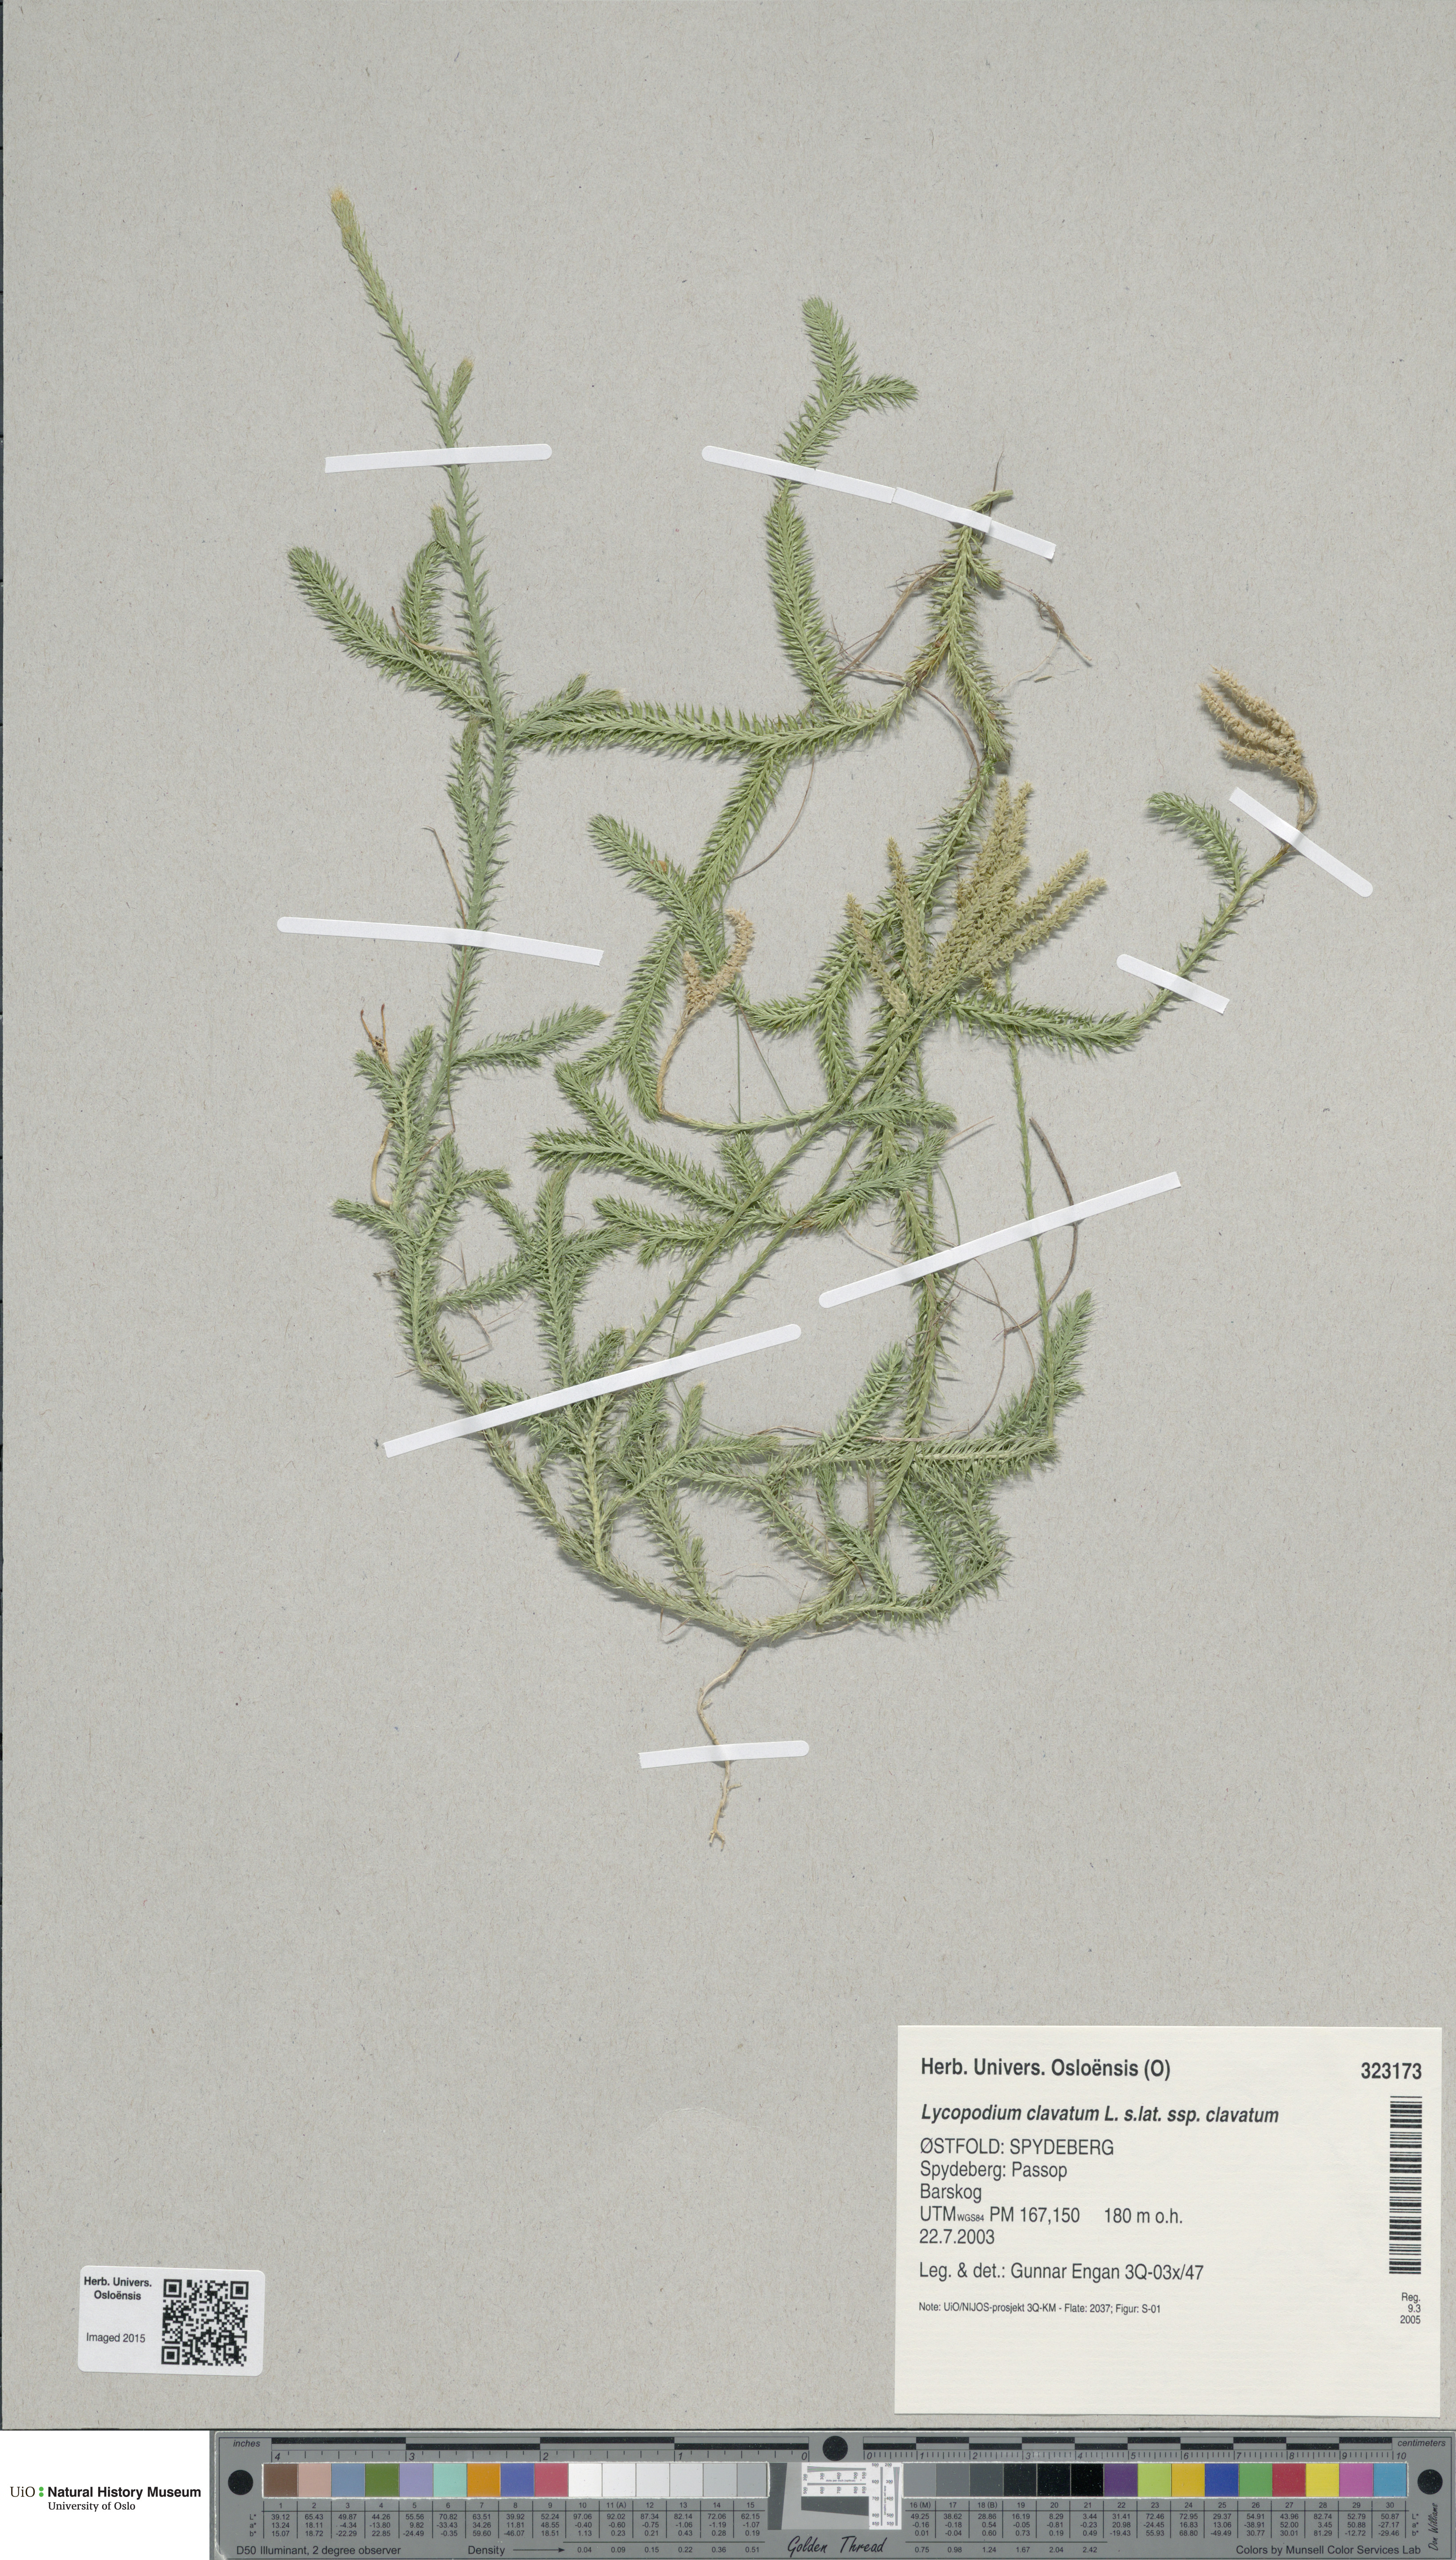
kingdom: Plantae
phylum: Tracheophyta
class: Lycopodiopsida
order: Lycopodiales
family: Lycopodiaceae
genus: Lycopodium
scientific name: Lycopodium clavatum
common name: Stag's-horn clubmoss
